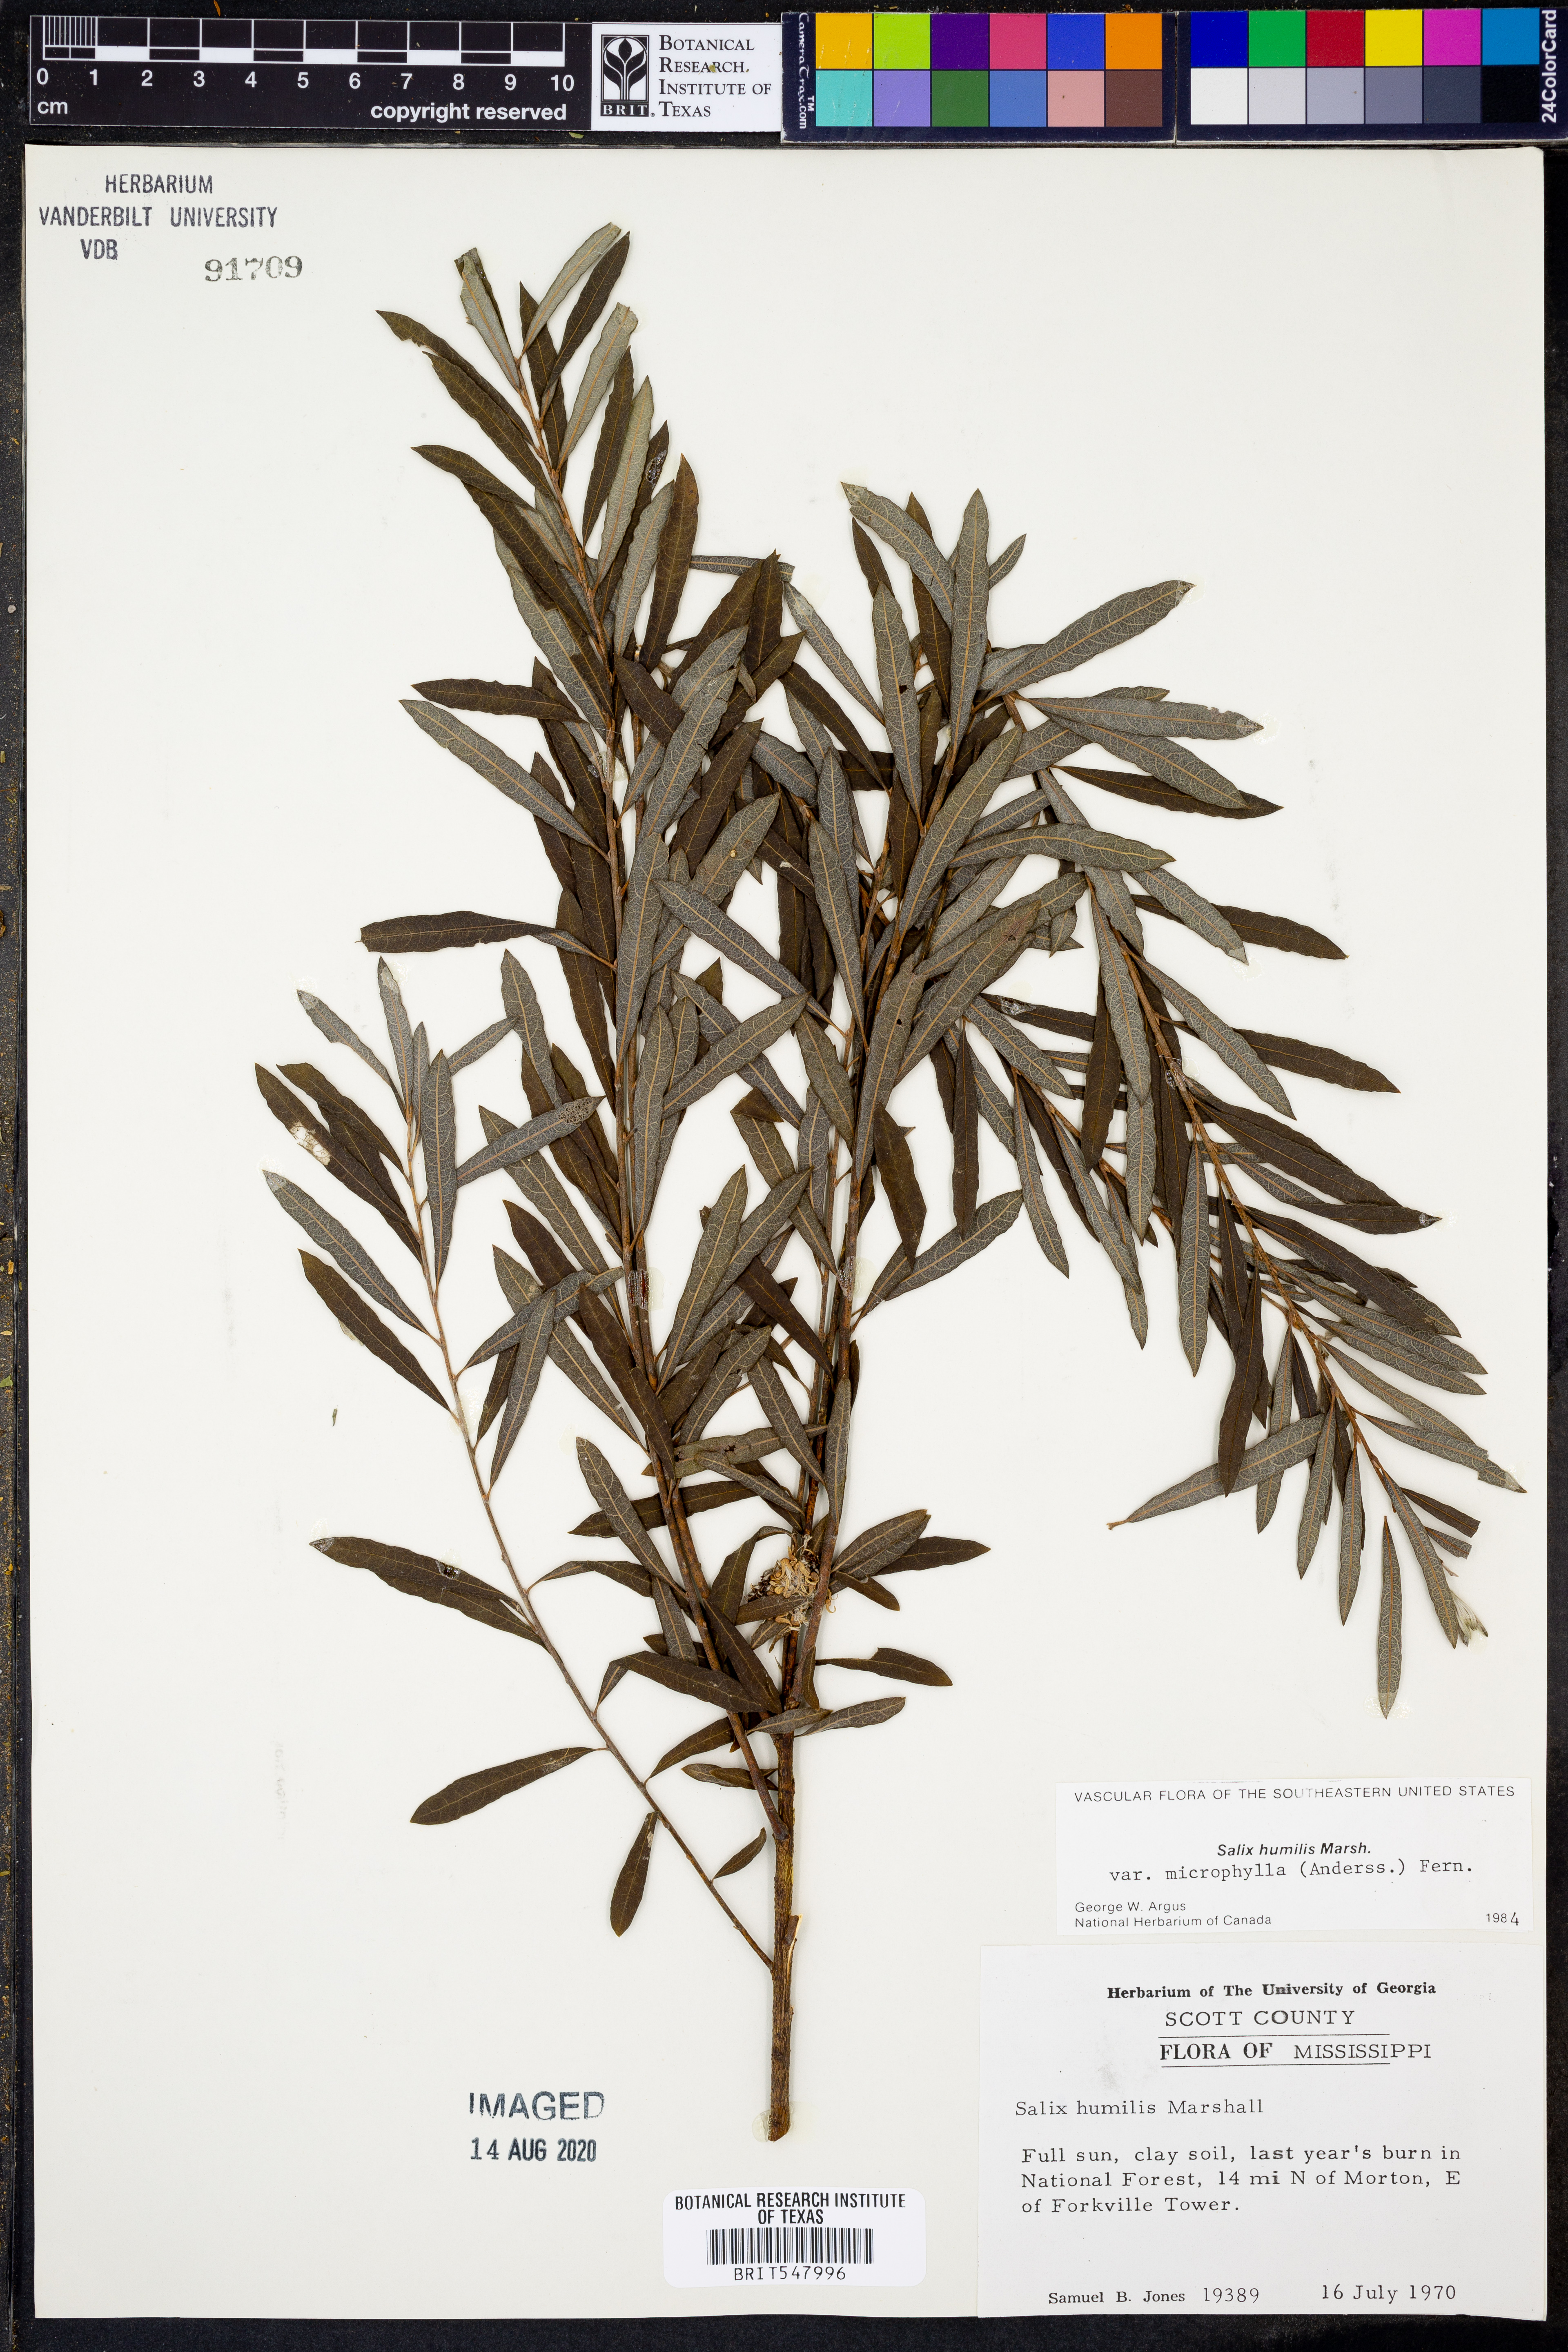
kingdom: Plantae
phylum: Tracheophyta
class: Magnoliopsida
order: Malpighiales
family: Salicaceae
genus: Salix
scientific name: Salix humilis
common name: Prairie willow
